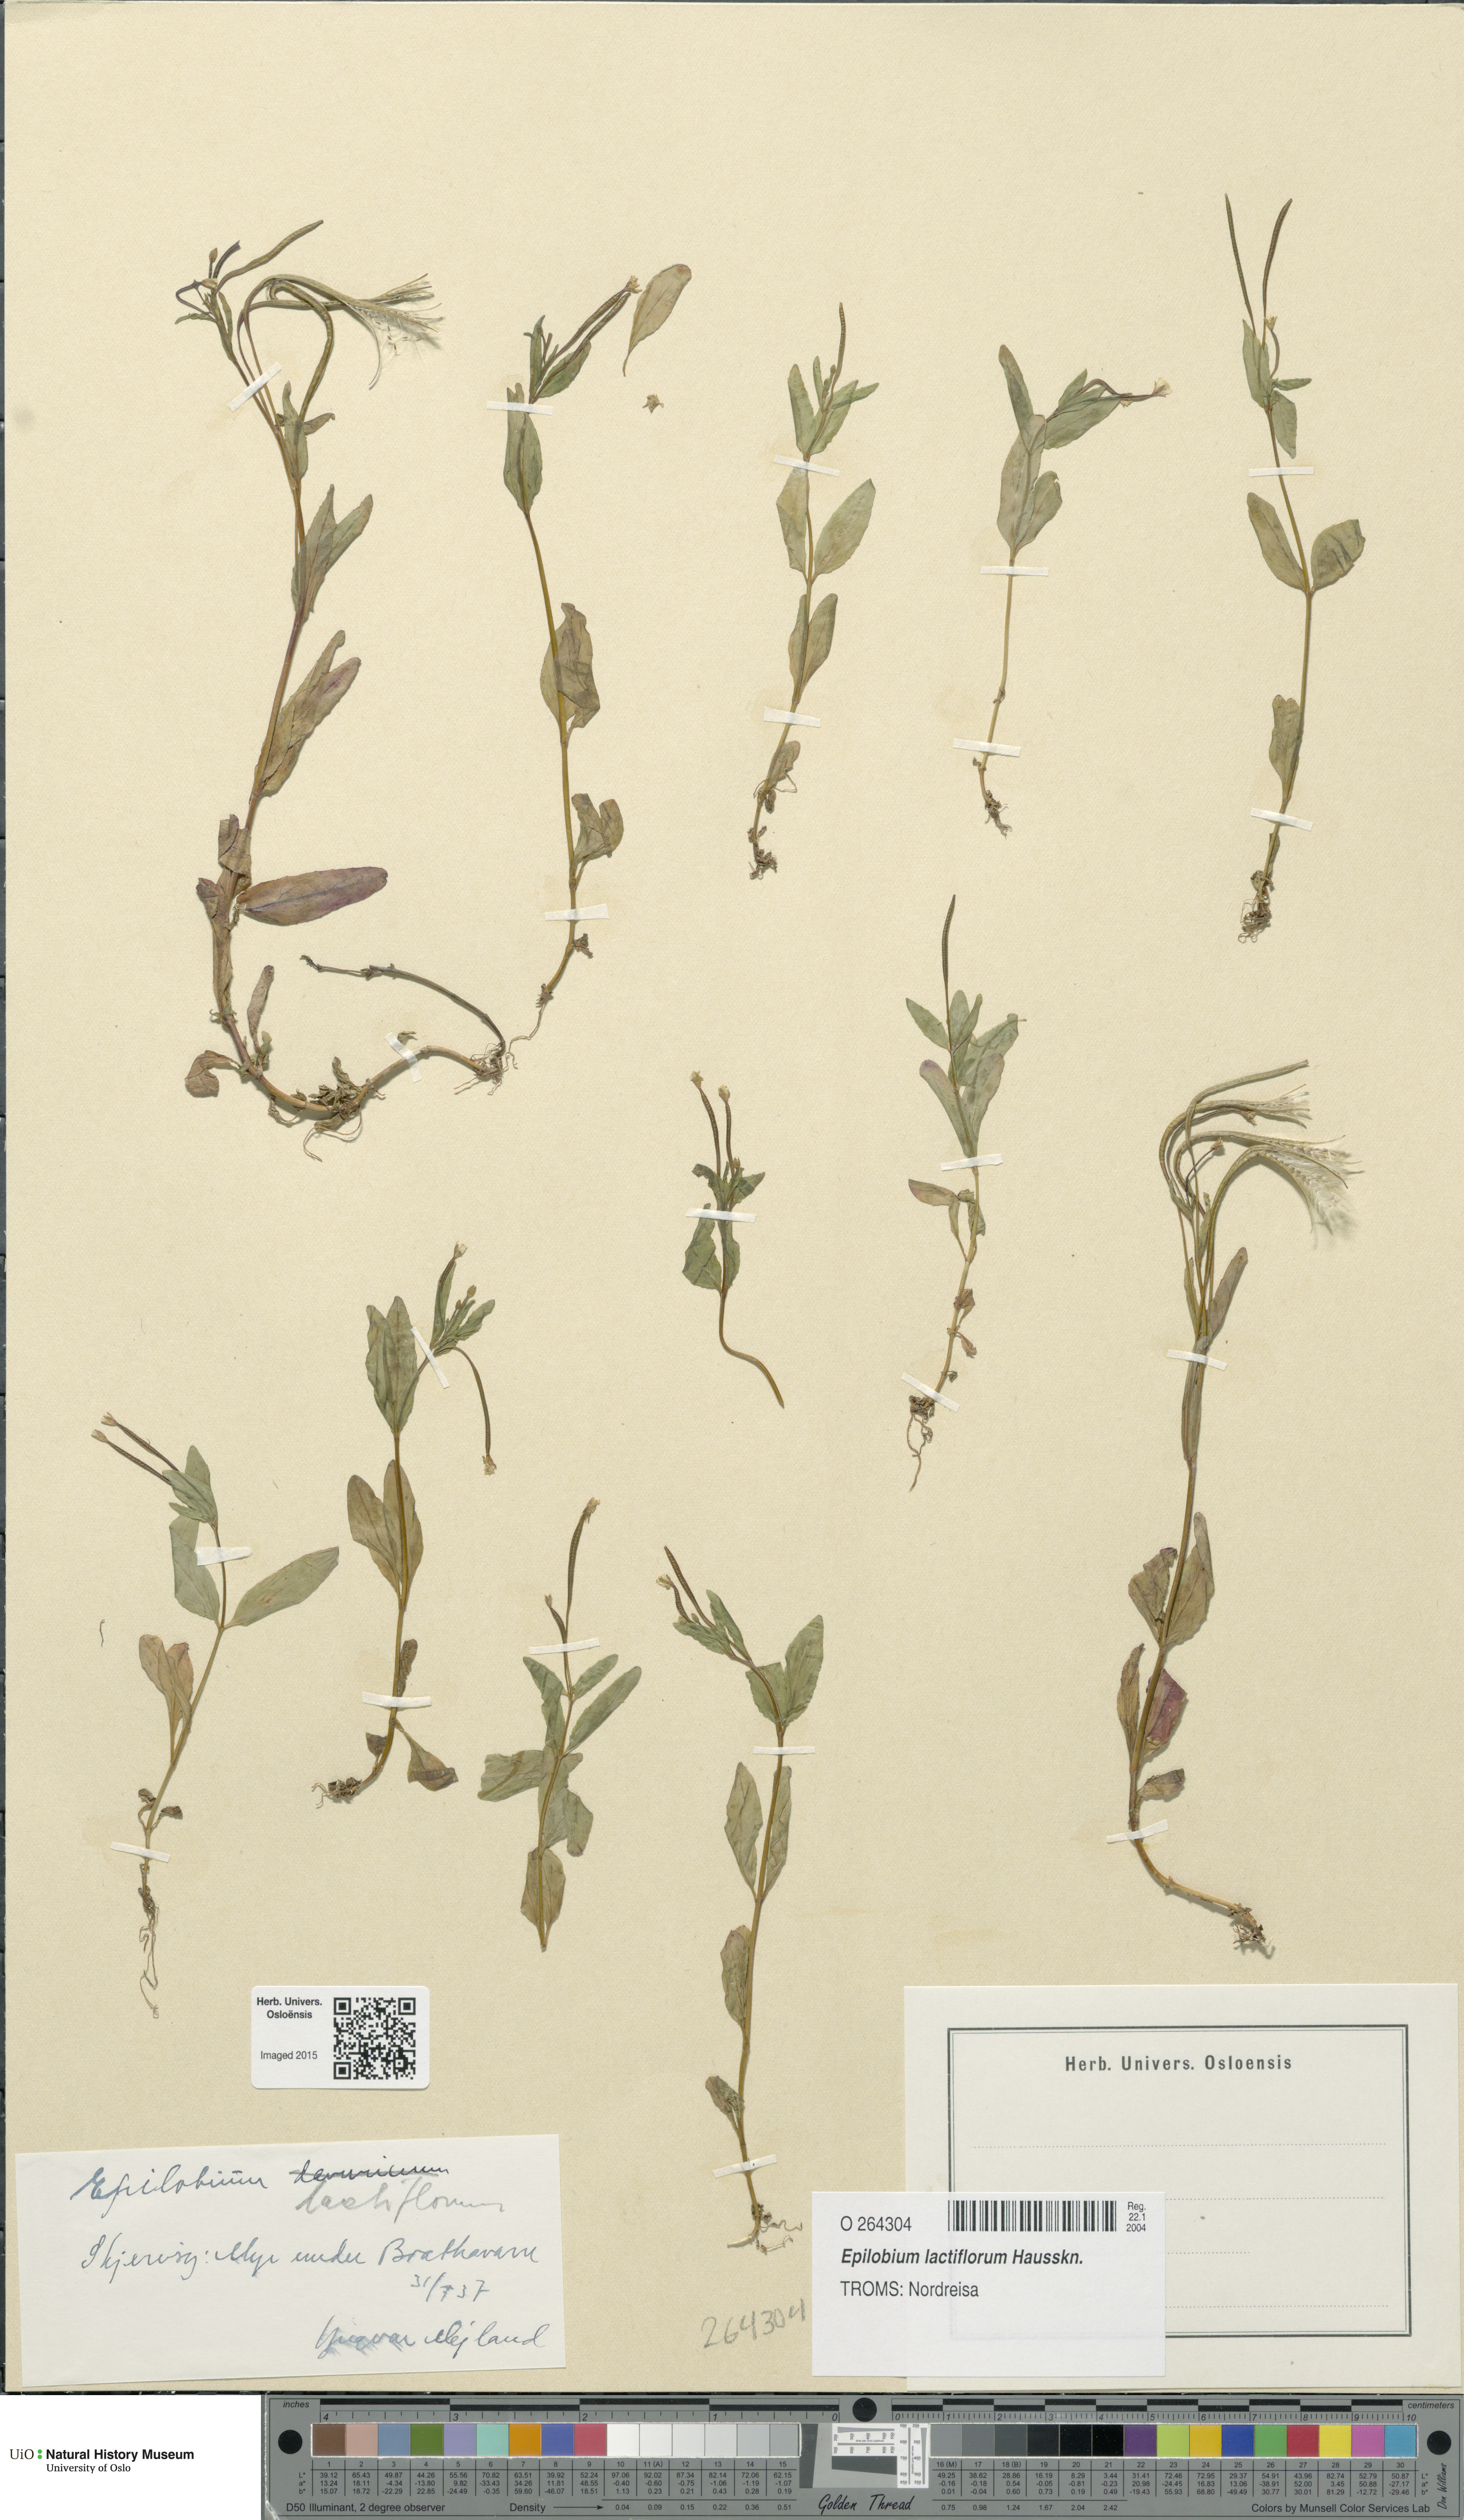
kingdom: Plantae
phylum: Tracheophyta
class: Magnoliopsida
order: Myrtales
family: Onagraceae
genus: Epilobium
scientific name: Epilobium lactiflorum
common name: Milkflower willowherb
